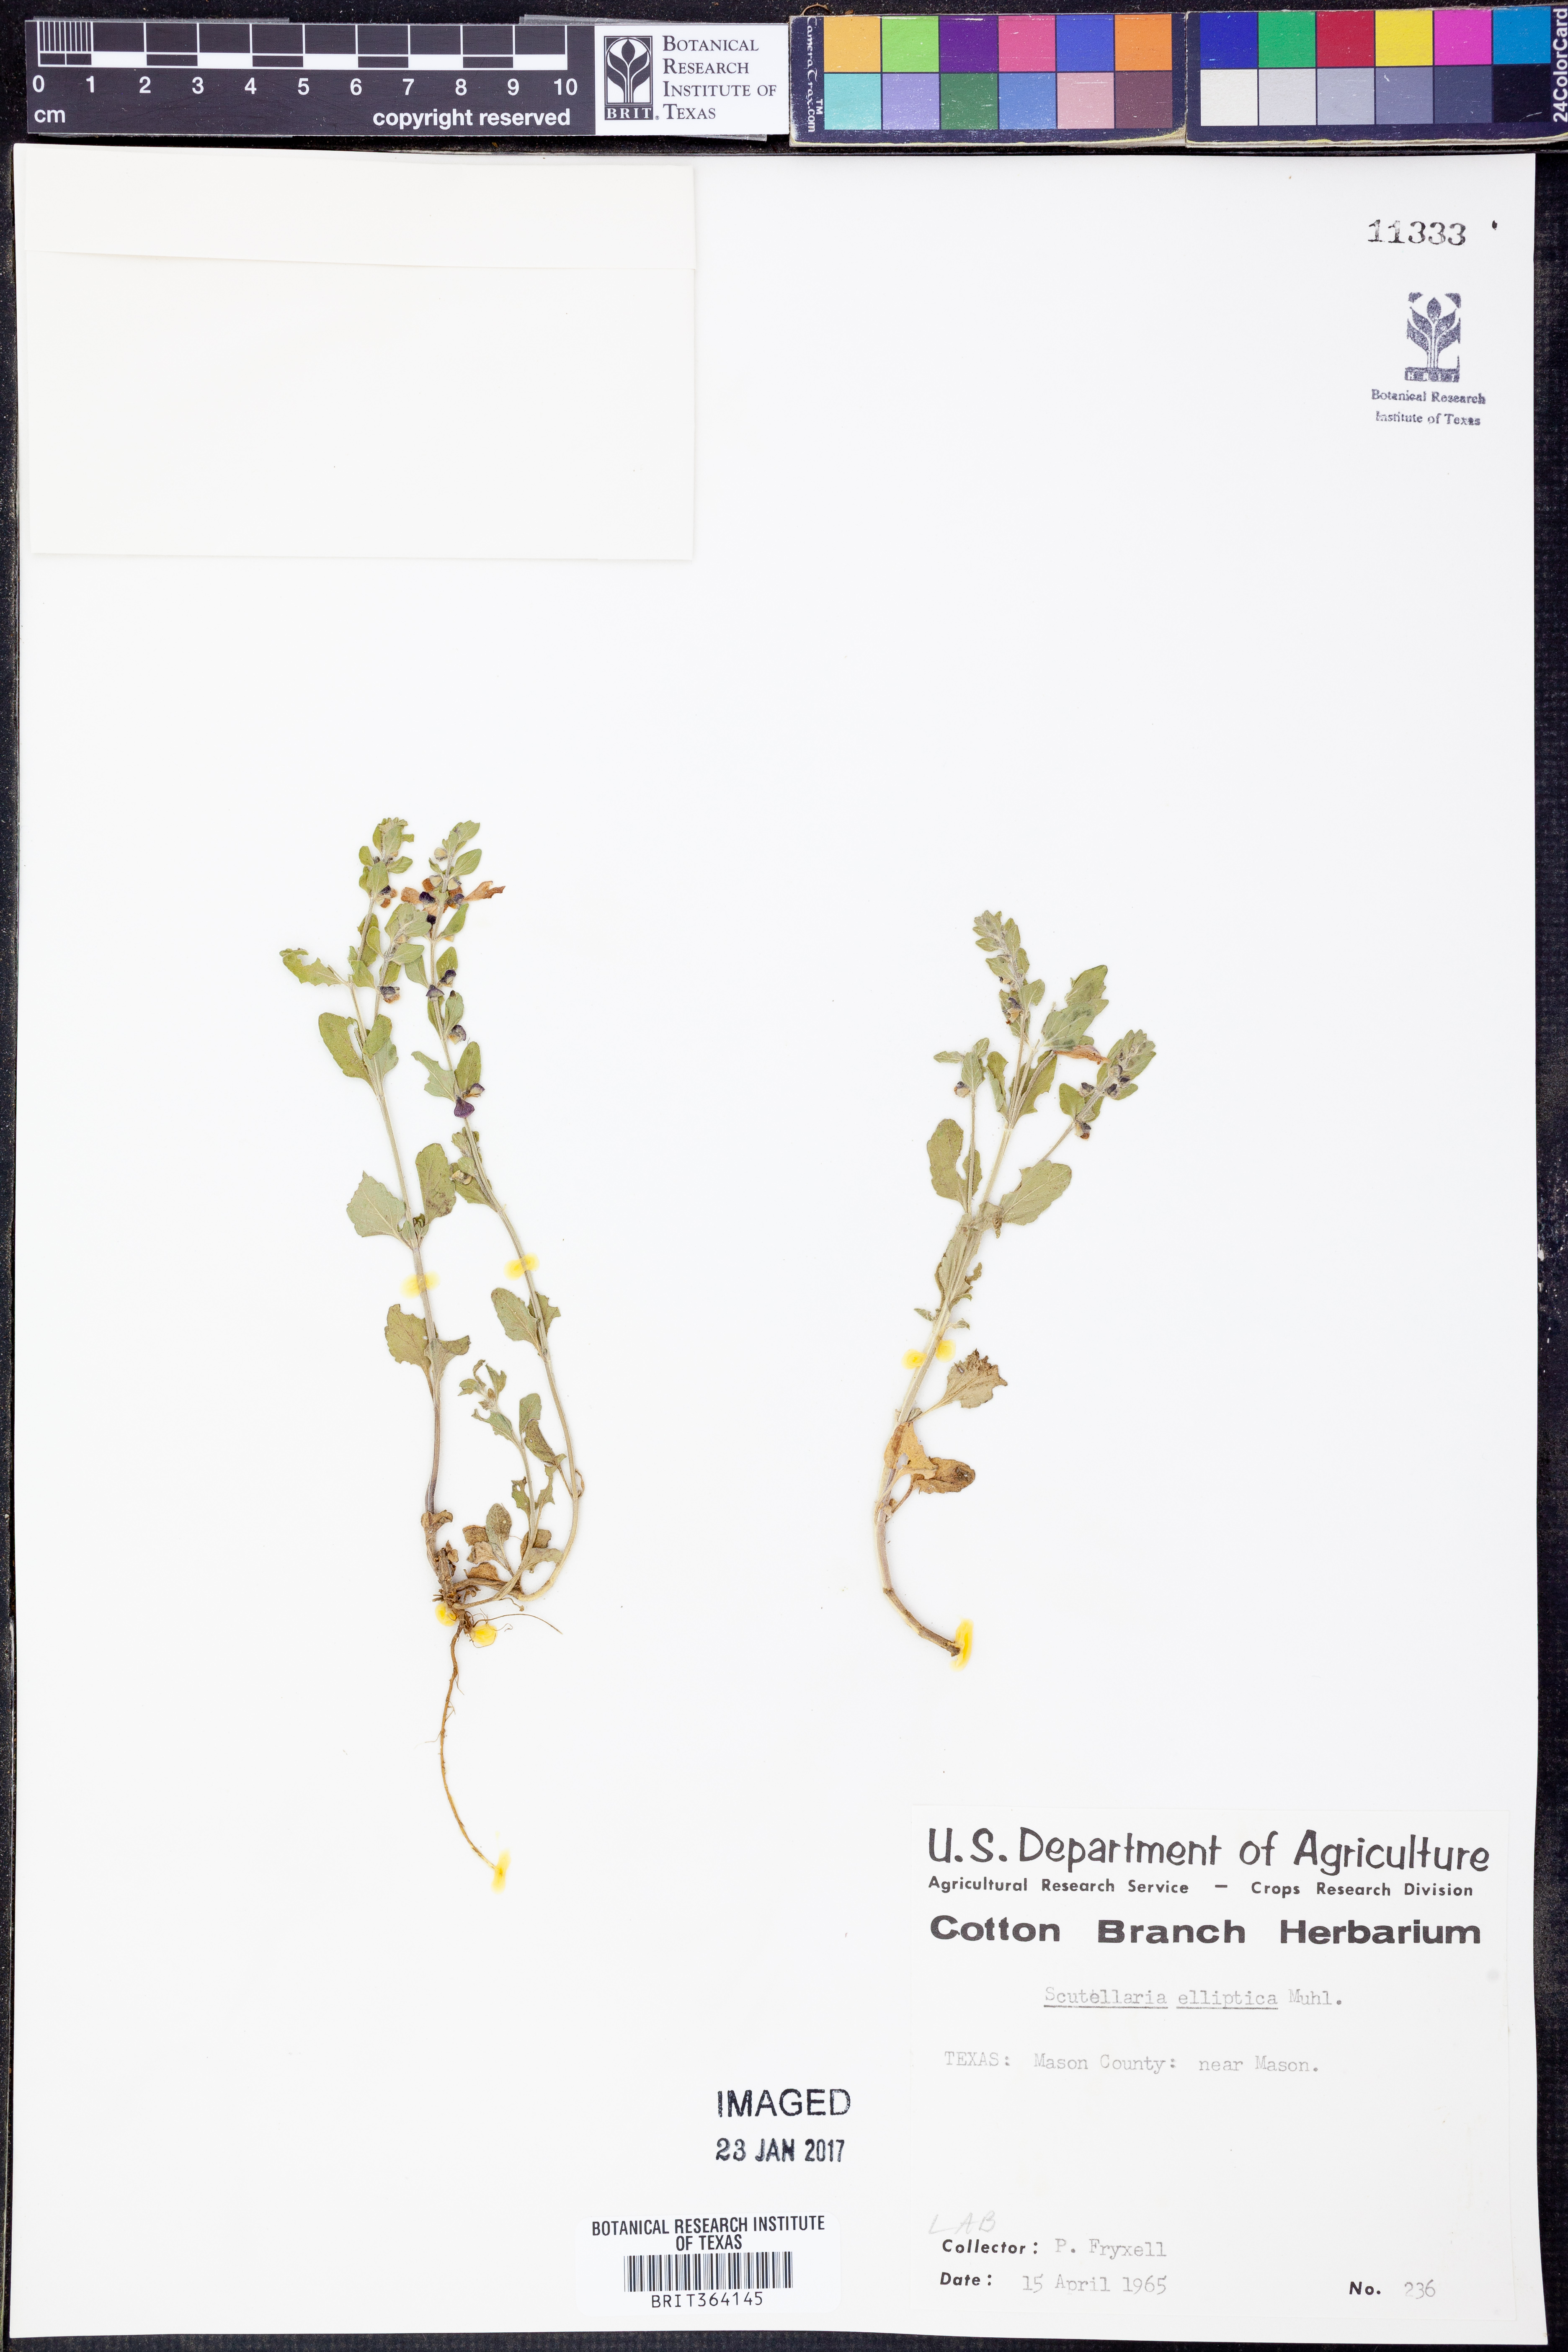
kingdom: Plantae
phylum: Tracheophyta
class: Magnoliopsida
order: Lamiales
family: Lamiaceae
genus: Scutellaria
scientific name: Scutellaria elliptica
